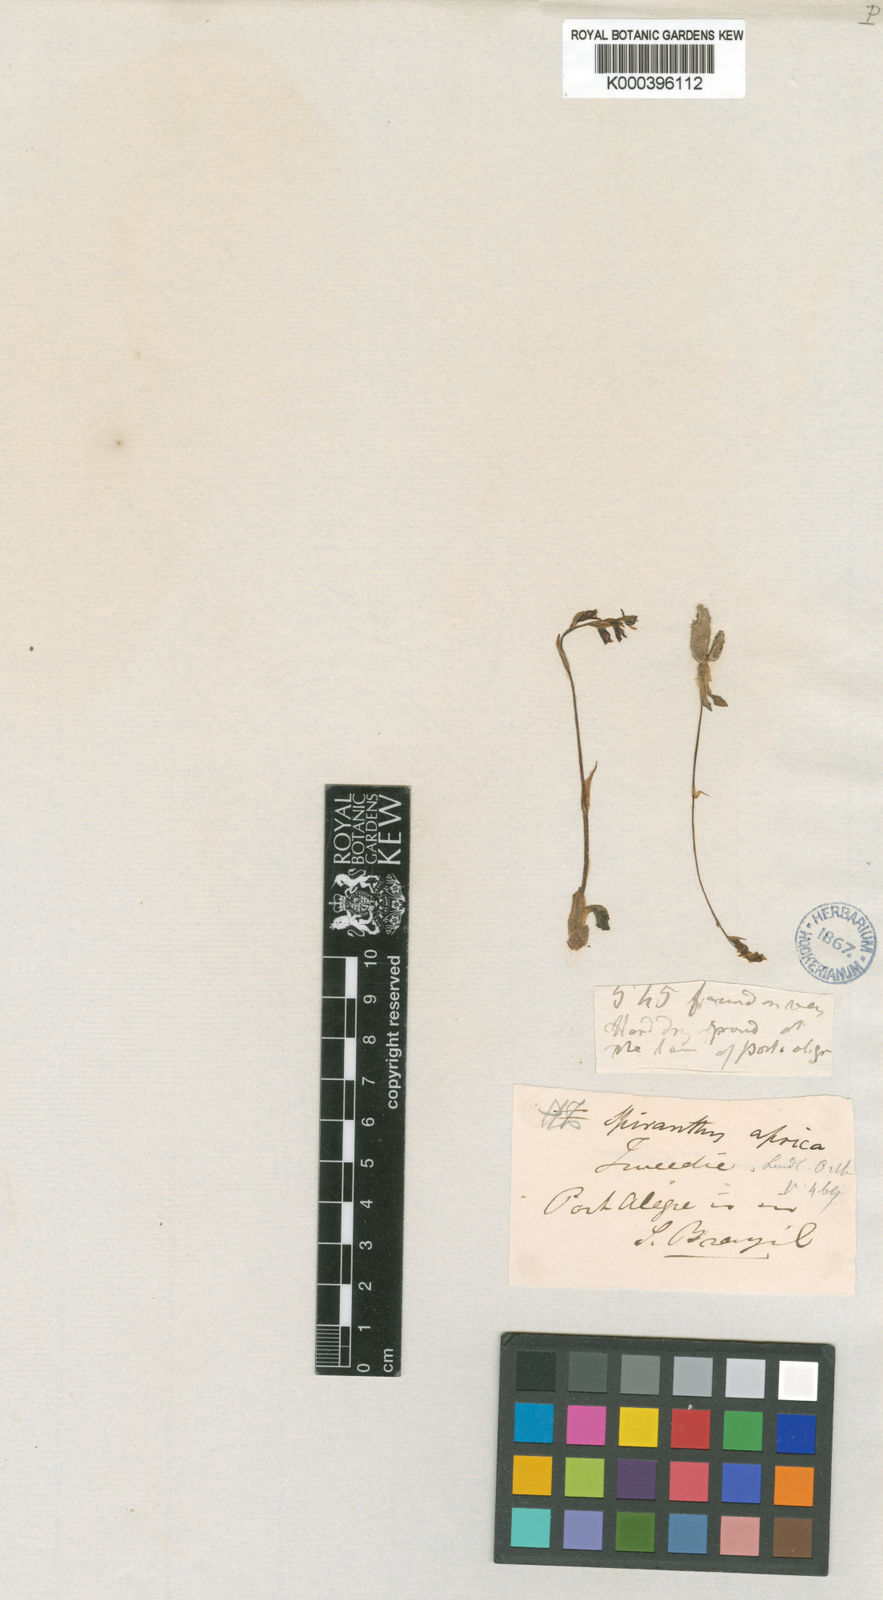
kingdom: Plantae
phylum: Tracheophyta
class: Liliopsida
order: Asparagales
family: Orchidaceae
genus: Cyclopogon
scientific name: Cyclopogon apricus
